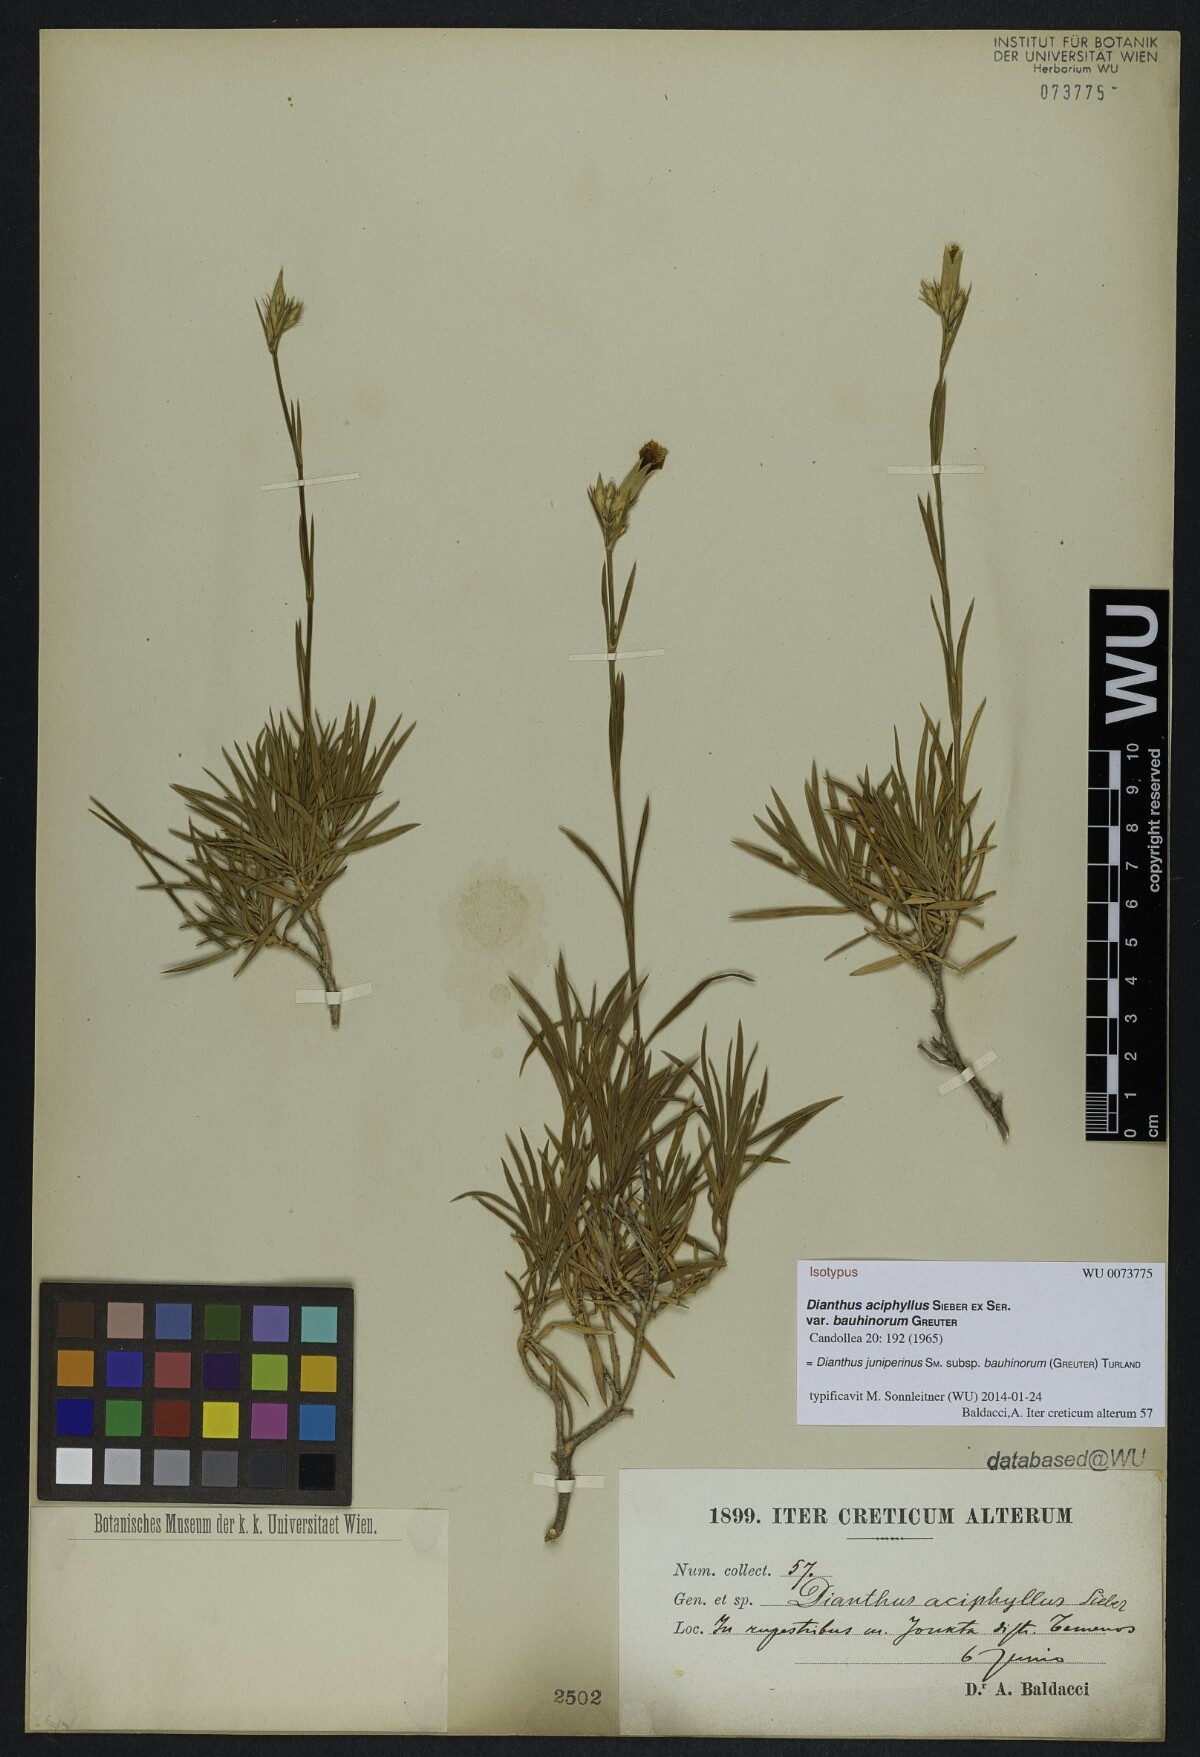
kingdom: Plantae
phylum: Tracheophyta
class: Magnoliopsida
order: Caryophyllales
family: Caryophyllaceae
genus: Dianthus
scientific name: Dianthus juniperinus
